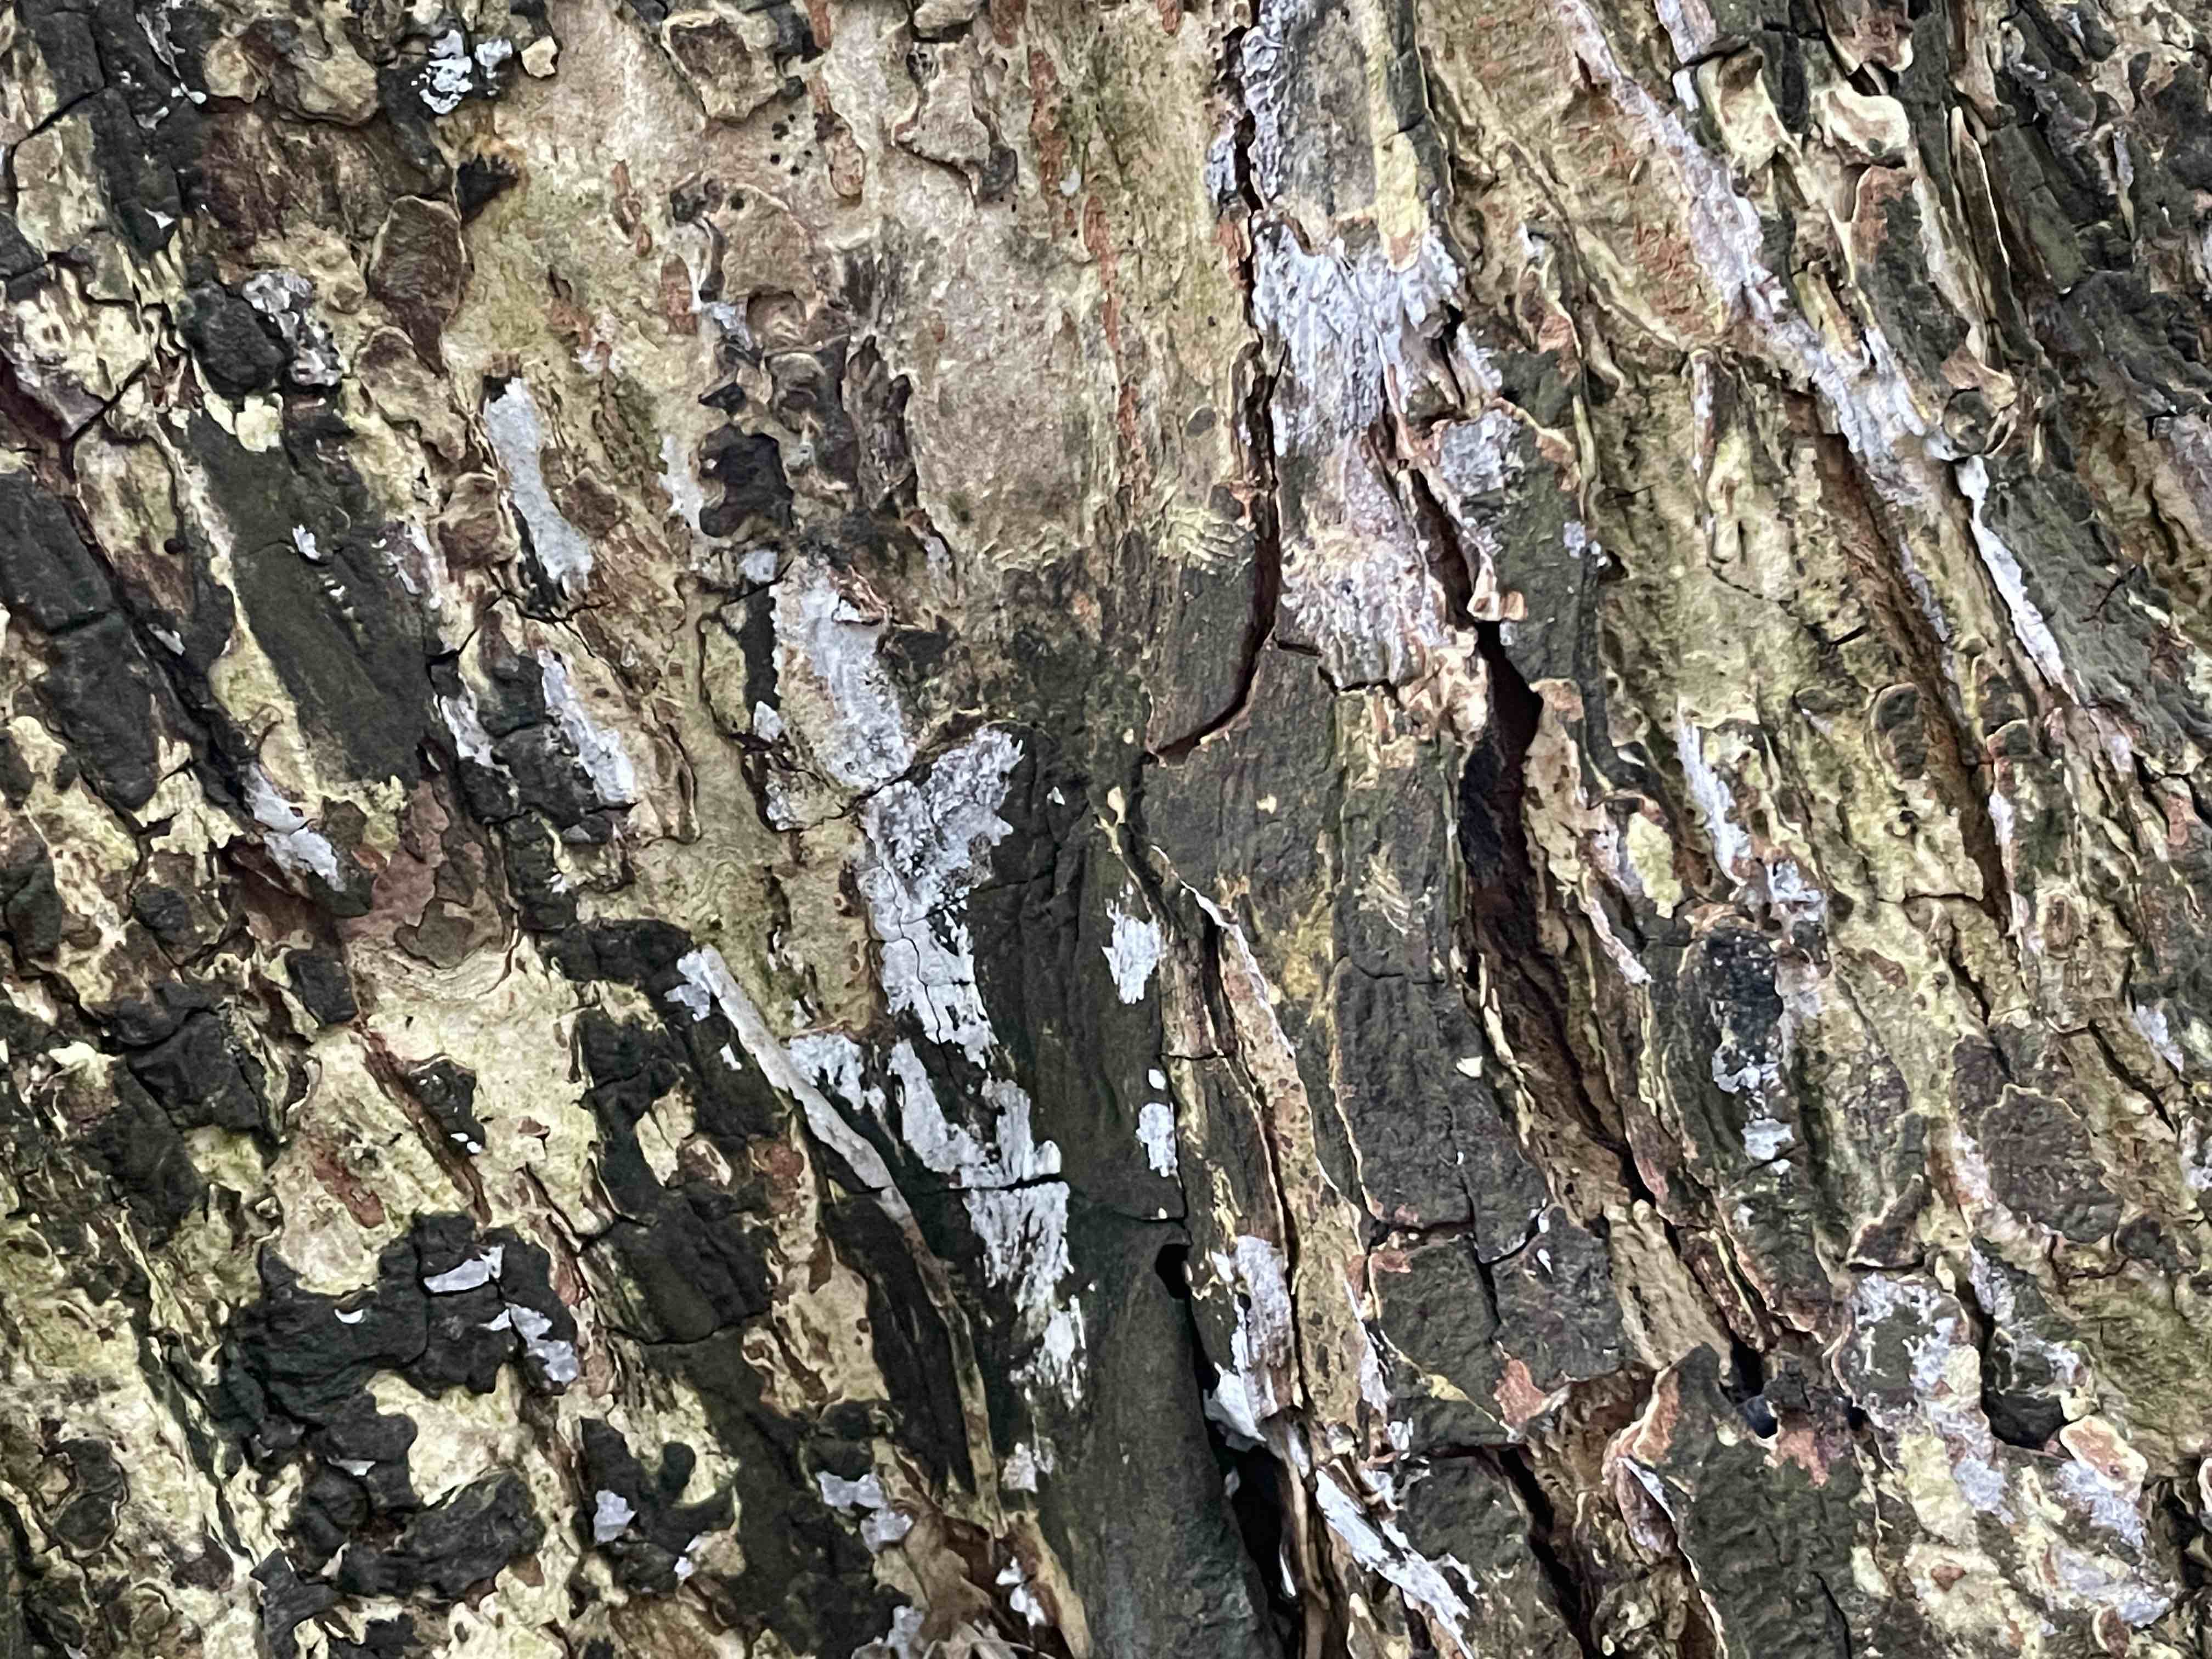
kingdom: Fungi
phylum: Basidiomycota
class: Agaricomycetes
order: Agaricales
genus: Dendrothele
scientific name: Dendrothele acerina
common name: navr-kalkplet
